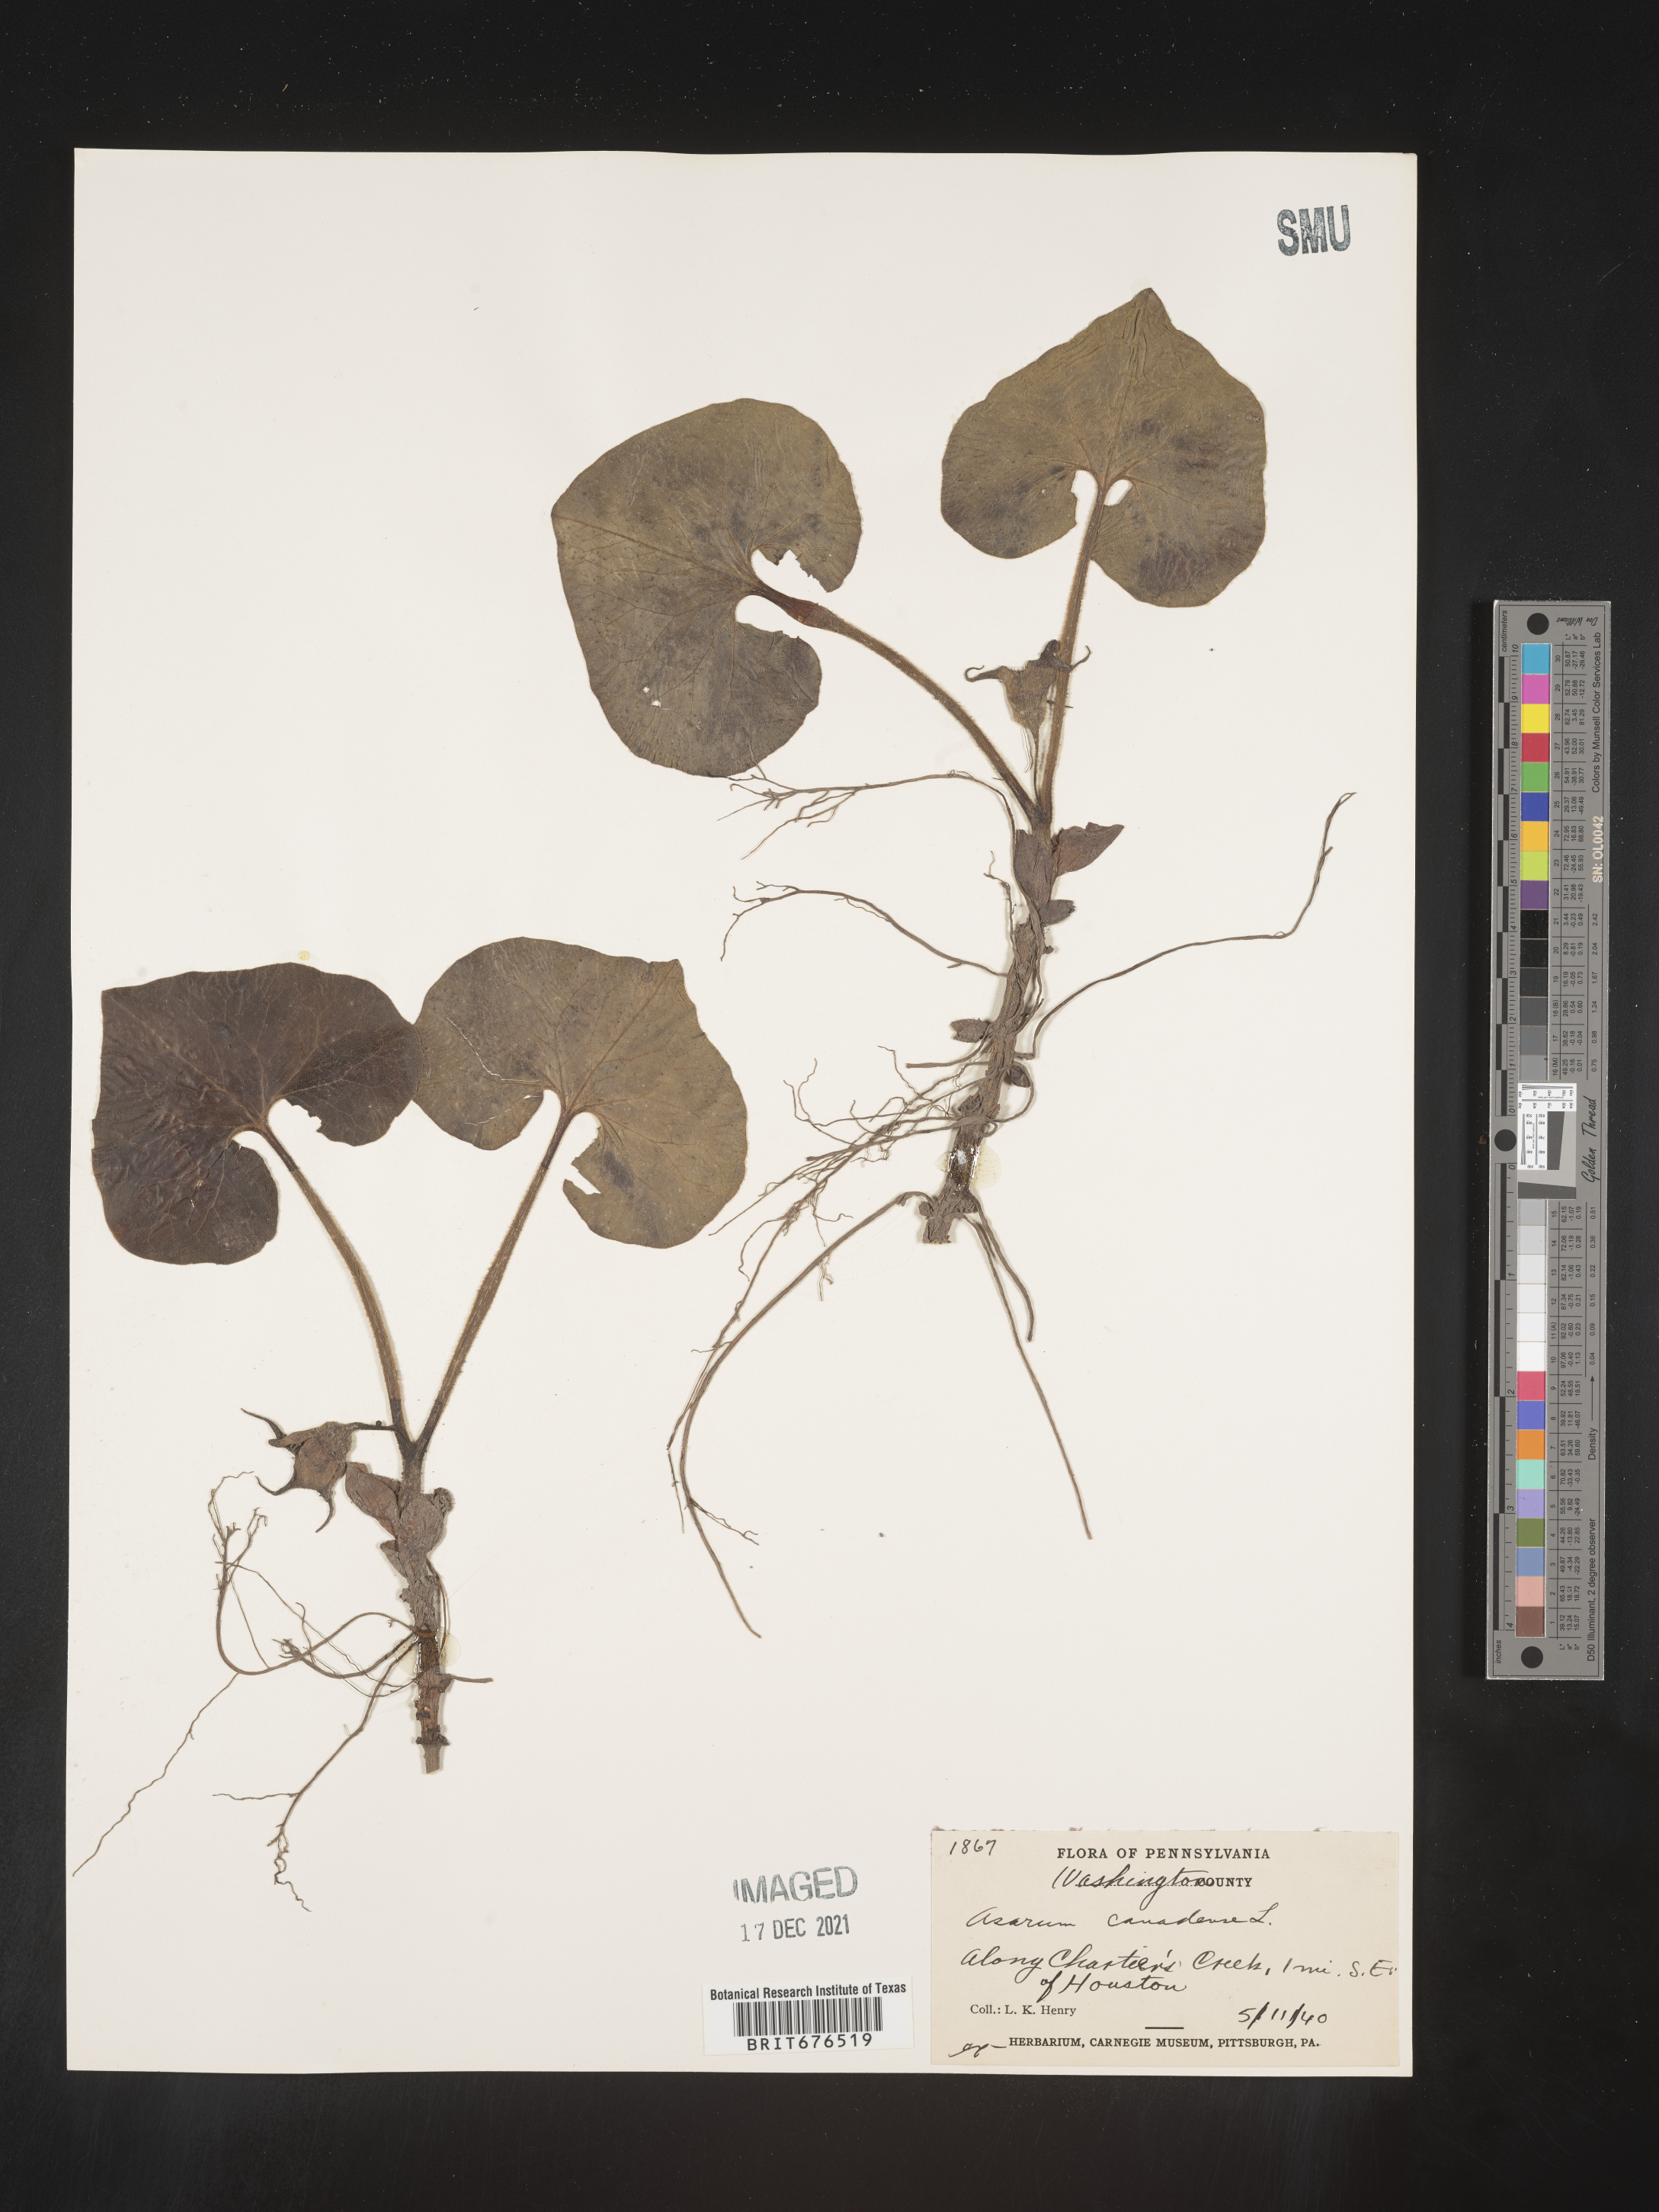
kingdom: Plantae
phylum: Tracheophyta
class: Magnoliopsida
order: Piperales
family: Aristolochiaceae
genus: Asarum
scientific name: Asarum canadense
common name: Wild ginger
